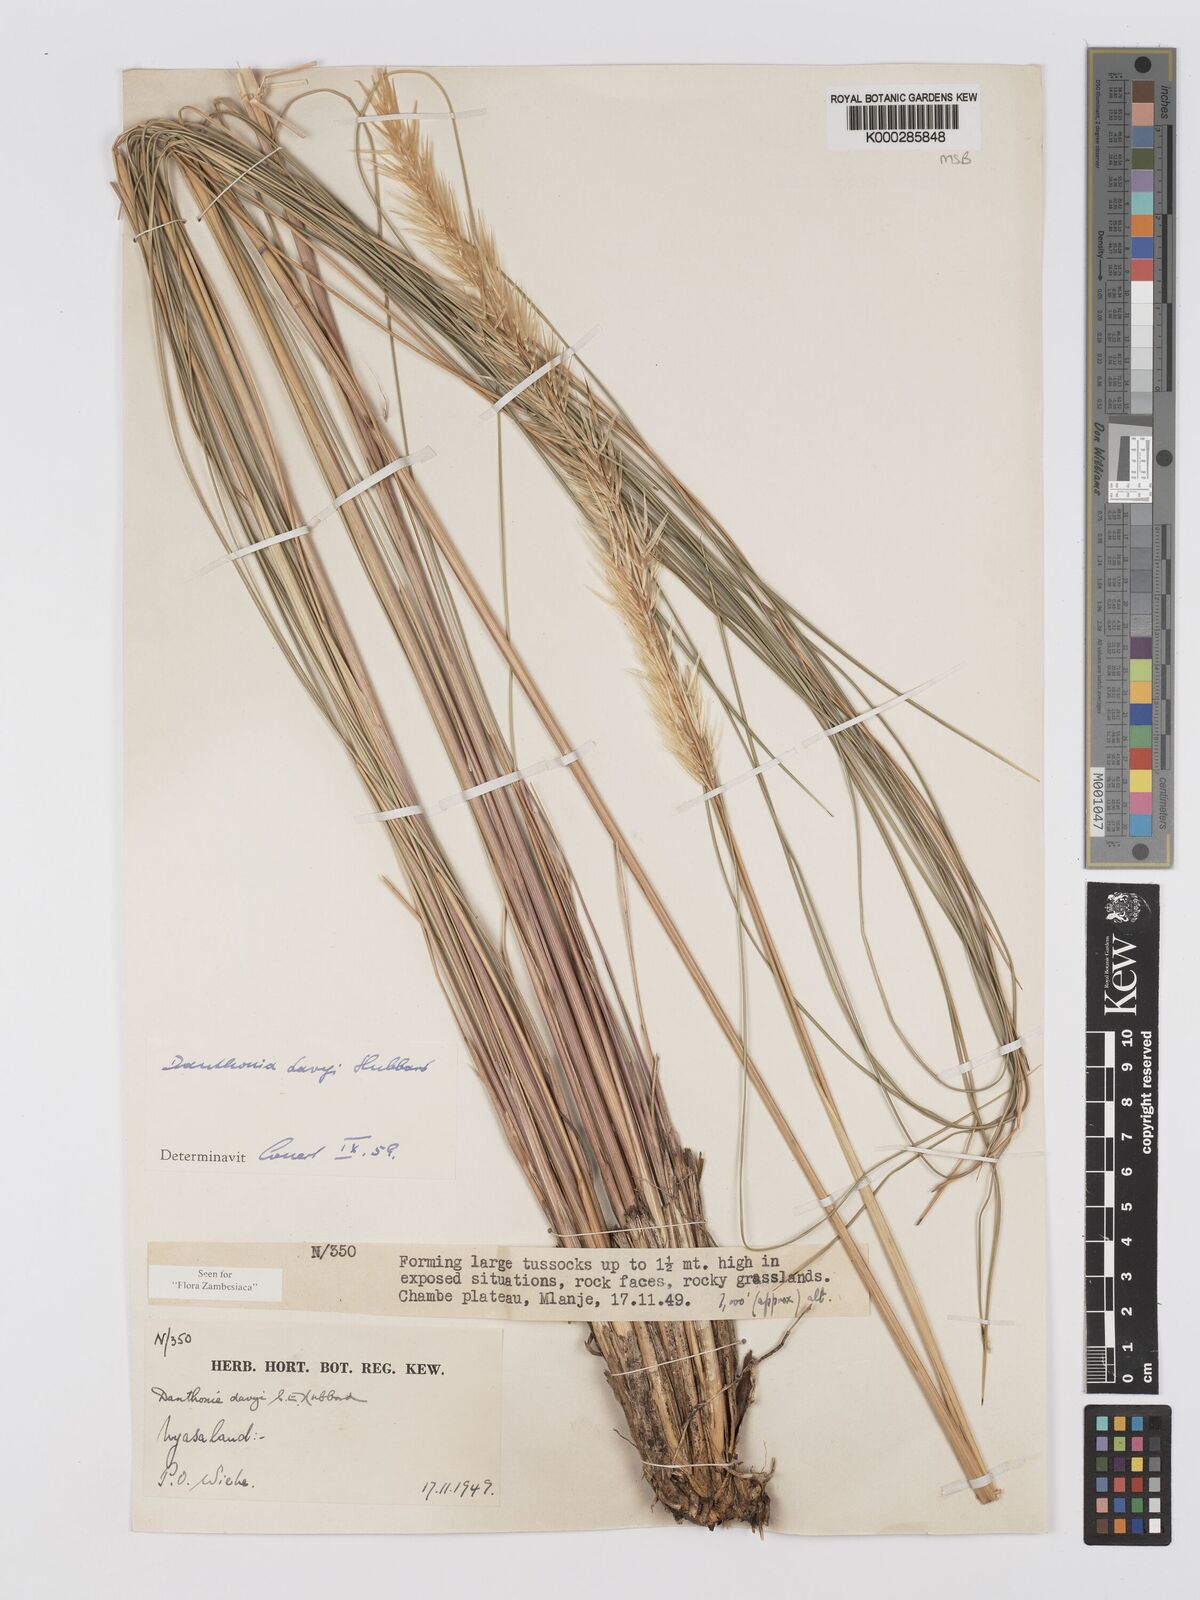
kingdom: Plantae
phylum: Tracheophyta
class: Liliopsida
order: Poales
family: Poaceae
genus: Merxmuellera
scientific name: Merxmuellera davyi
